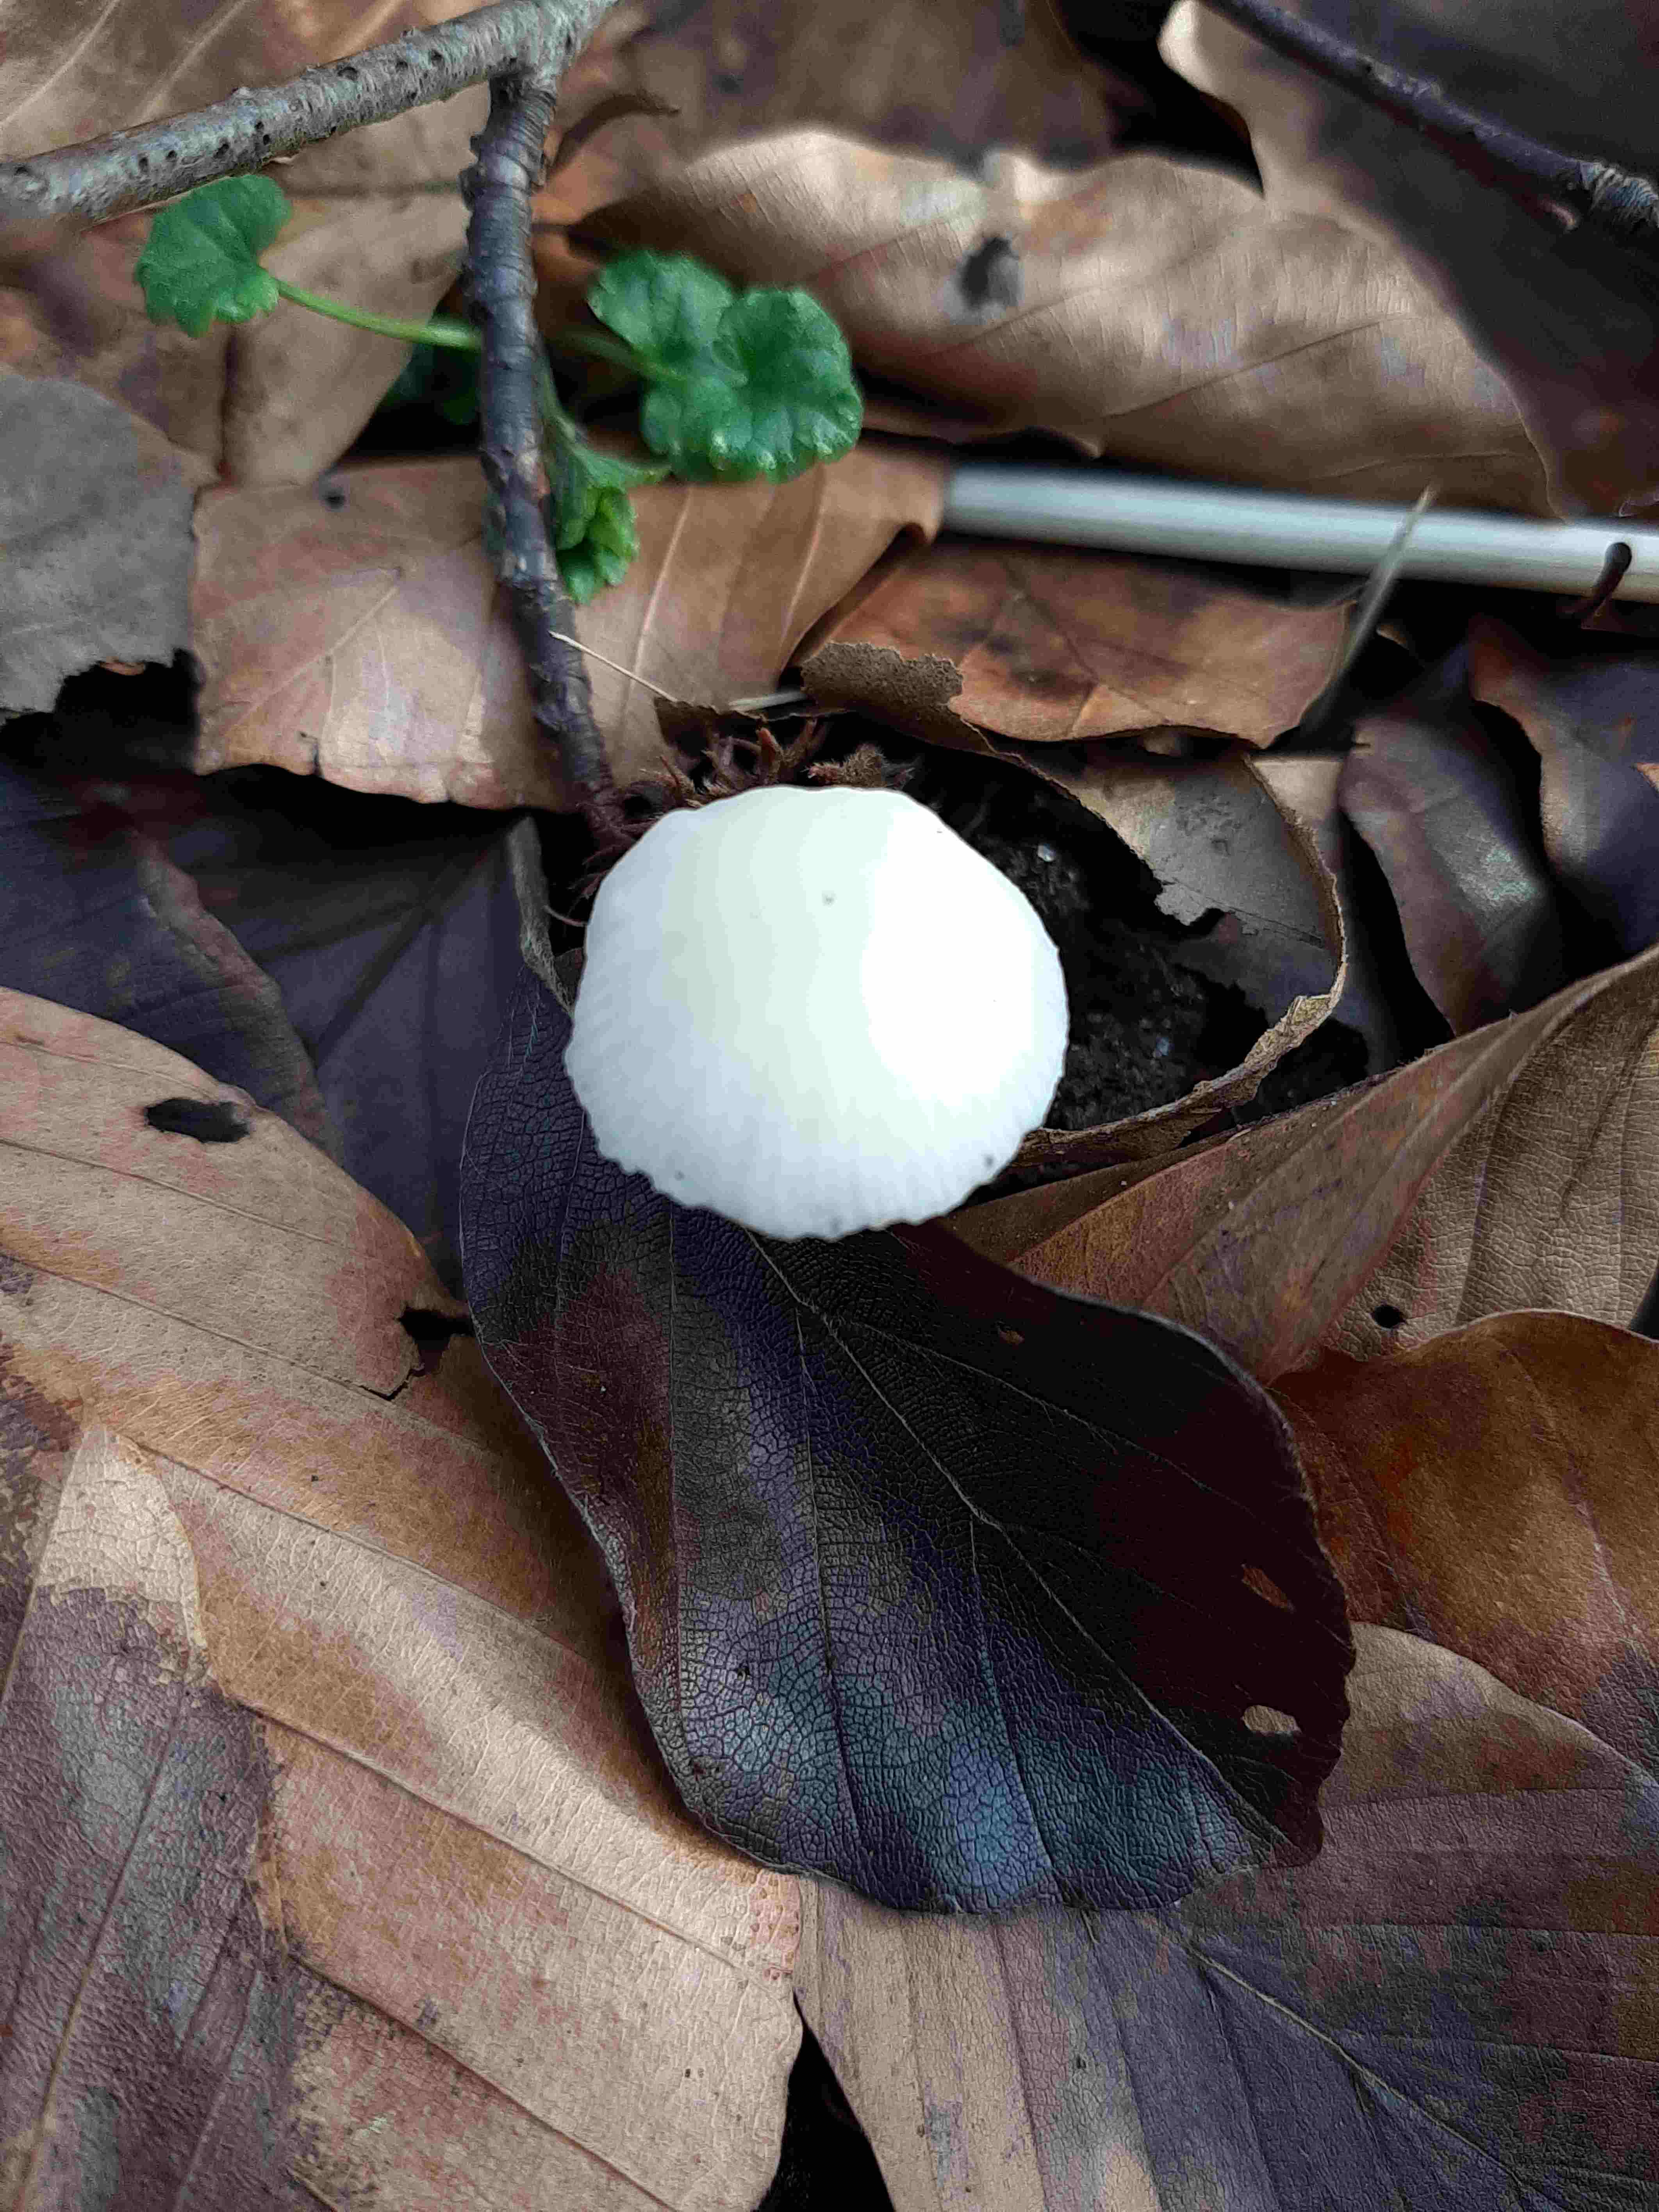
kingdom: Fungi
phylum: Basidiomycota
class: Agaricomycetes
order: Agaricales
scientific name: Agaricales
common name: champignonordenen
